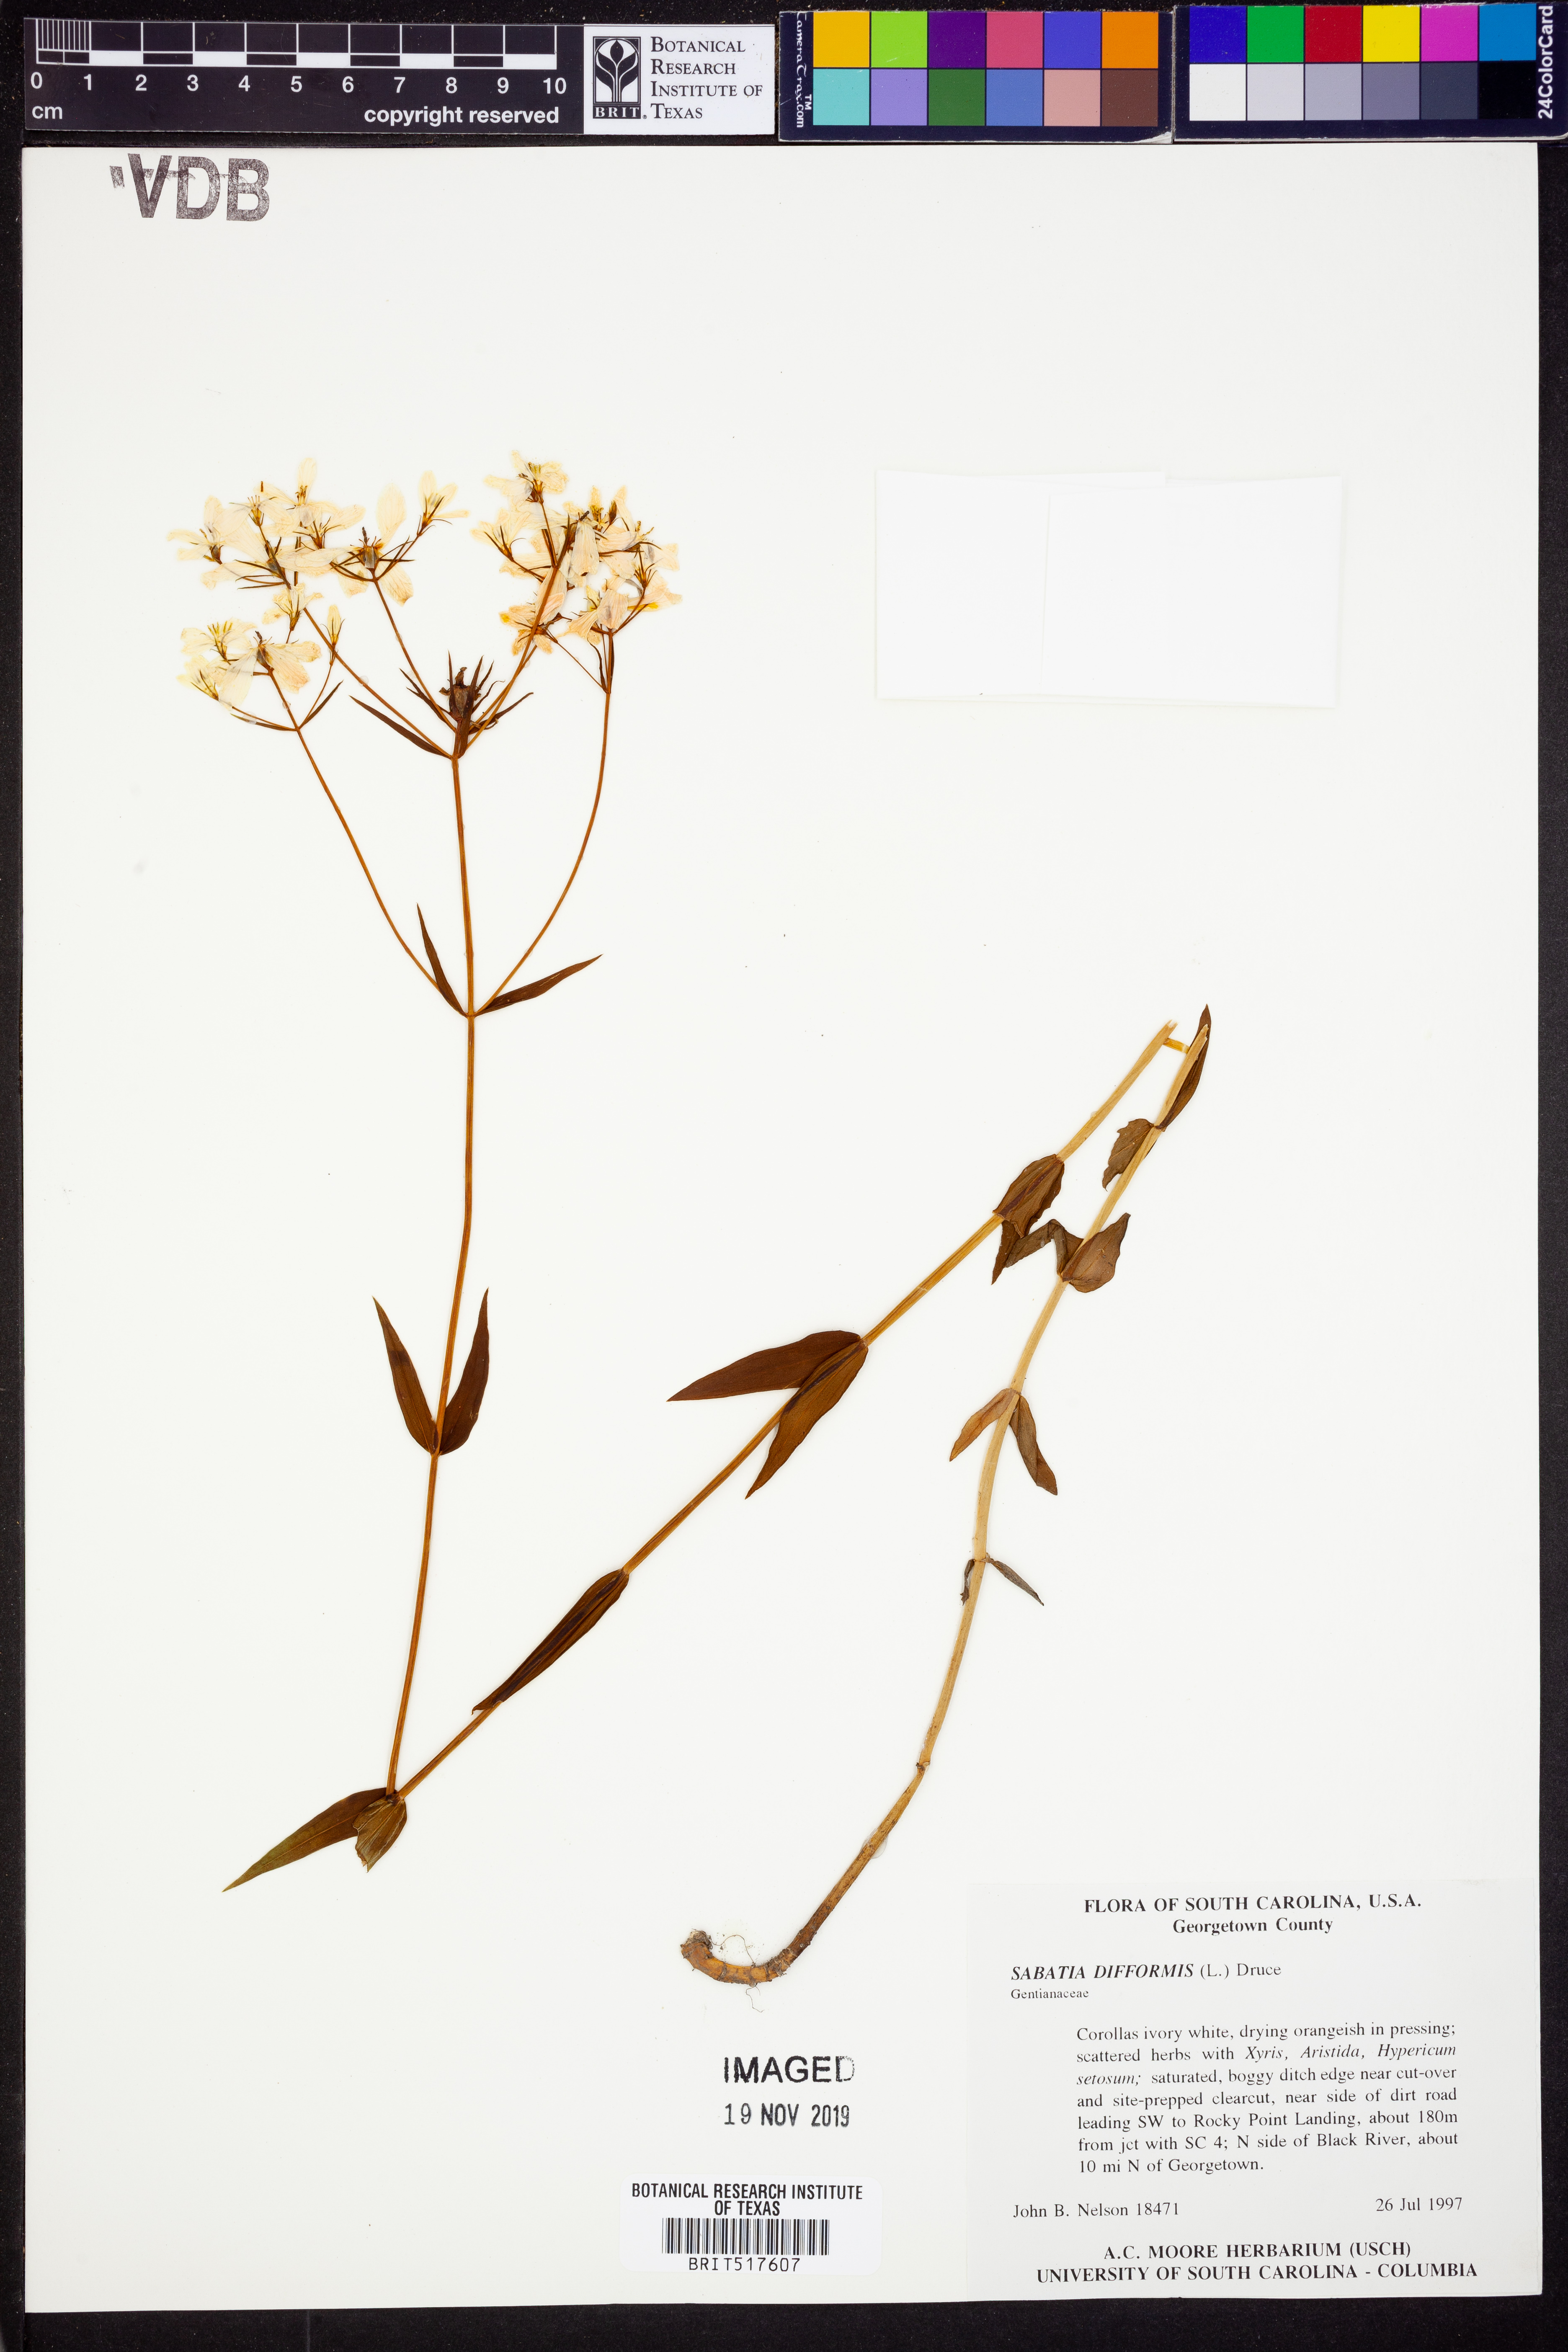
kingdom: Plantae
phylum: Tracheophyta
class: Magnoliopsida
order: Gentianales
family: Gentianaceae
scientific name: Gentianaceae
